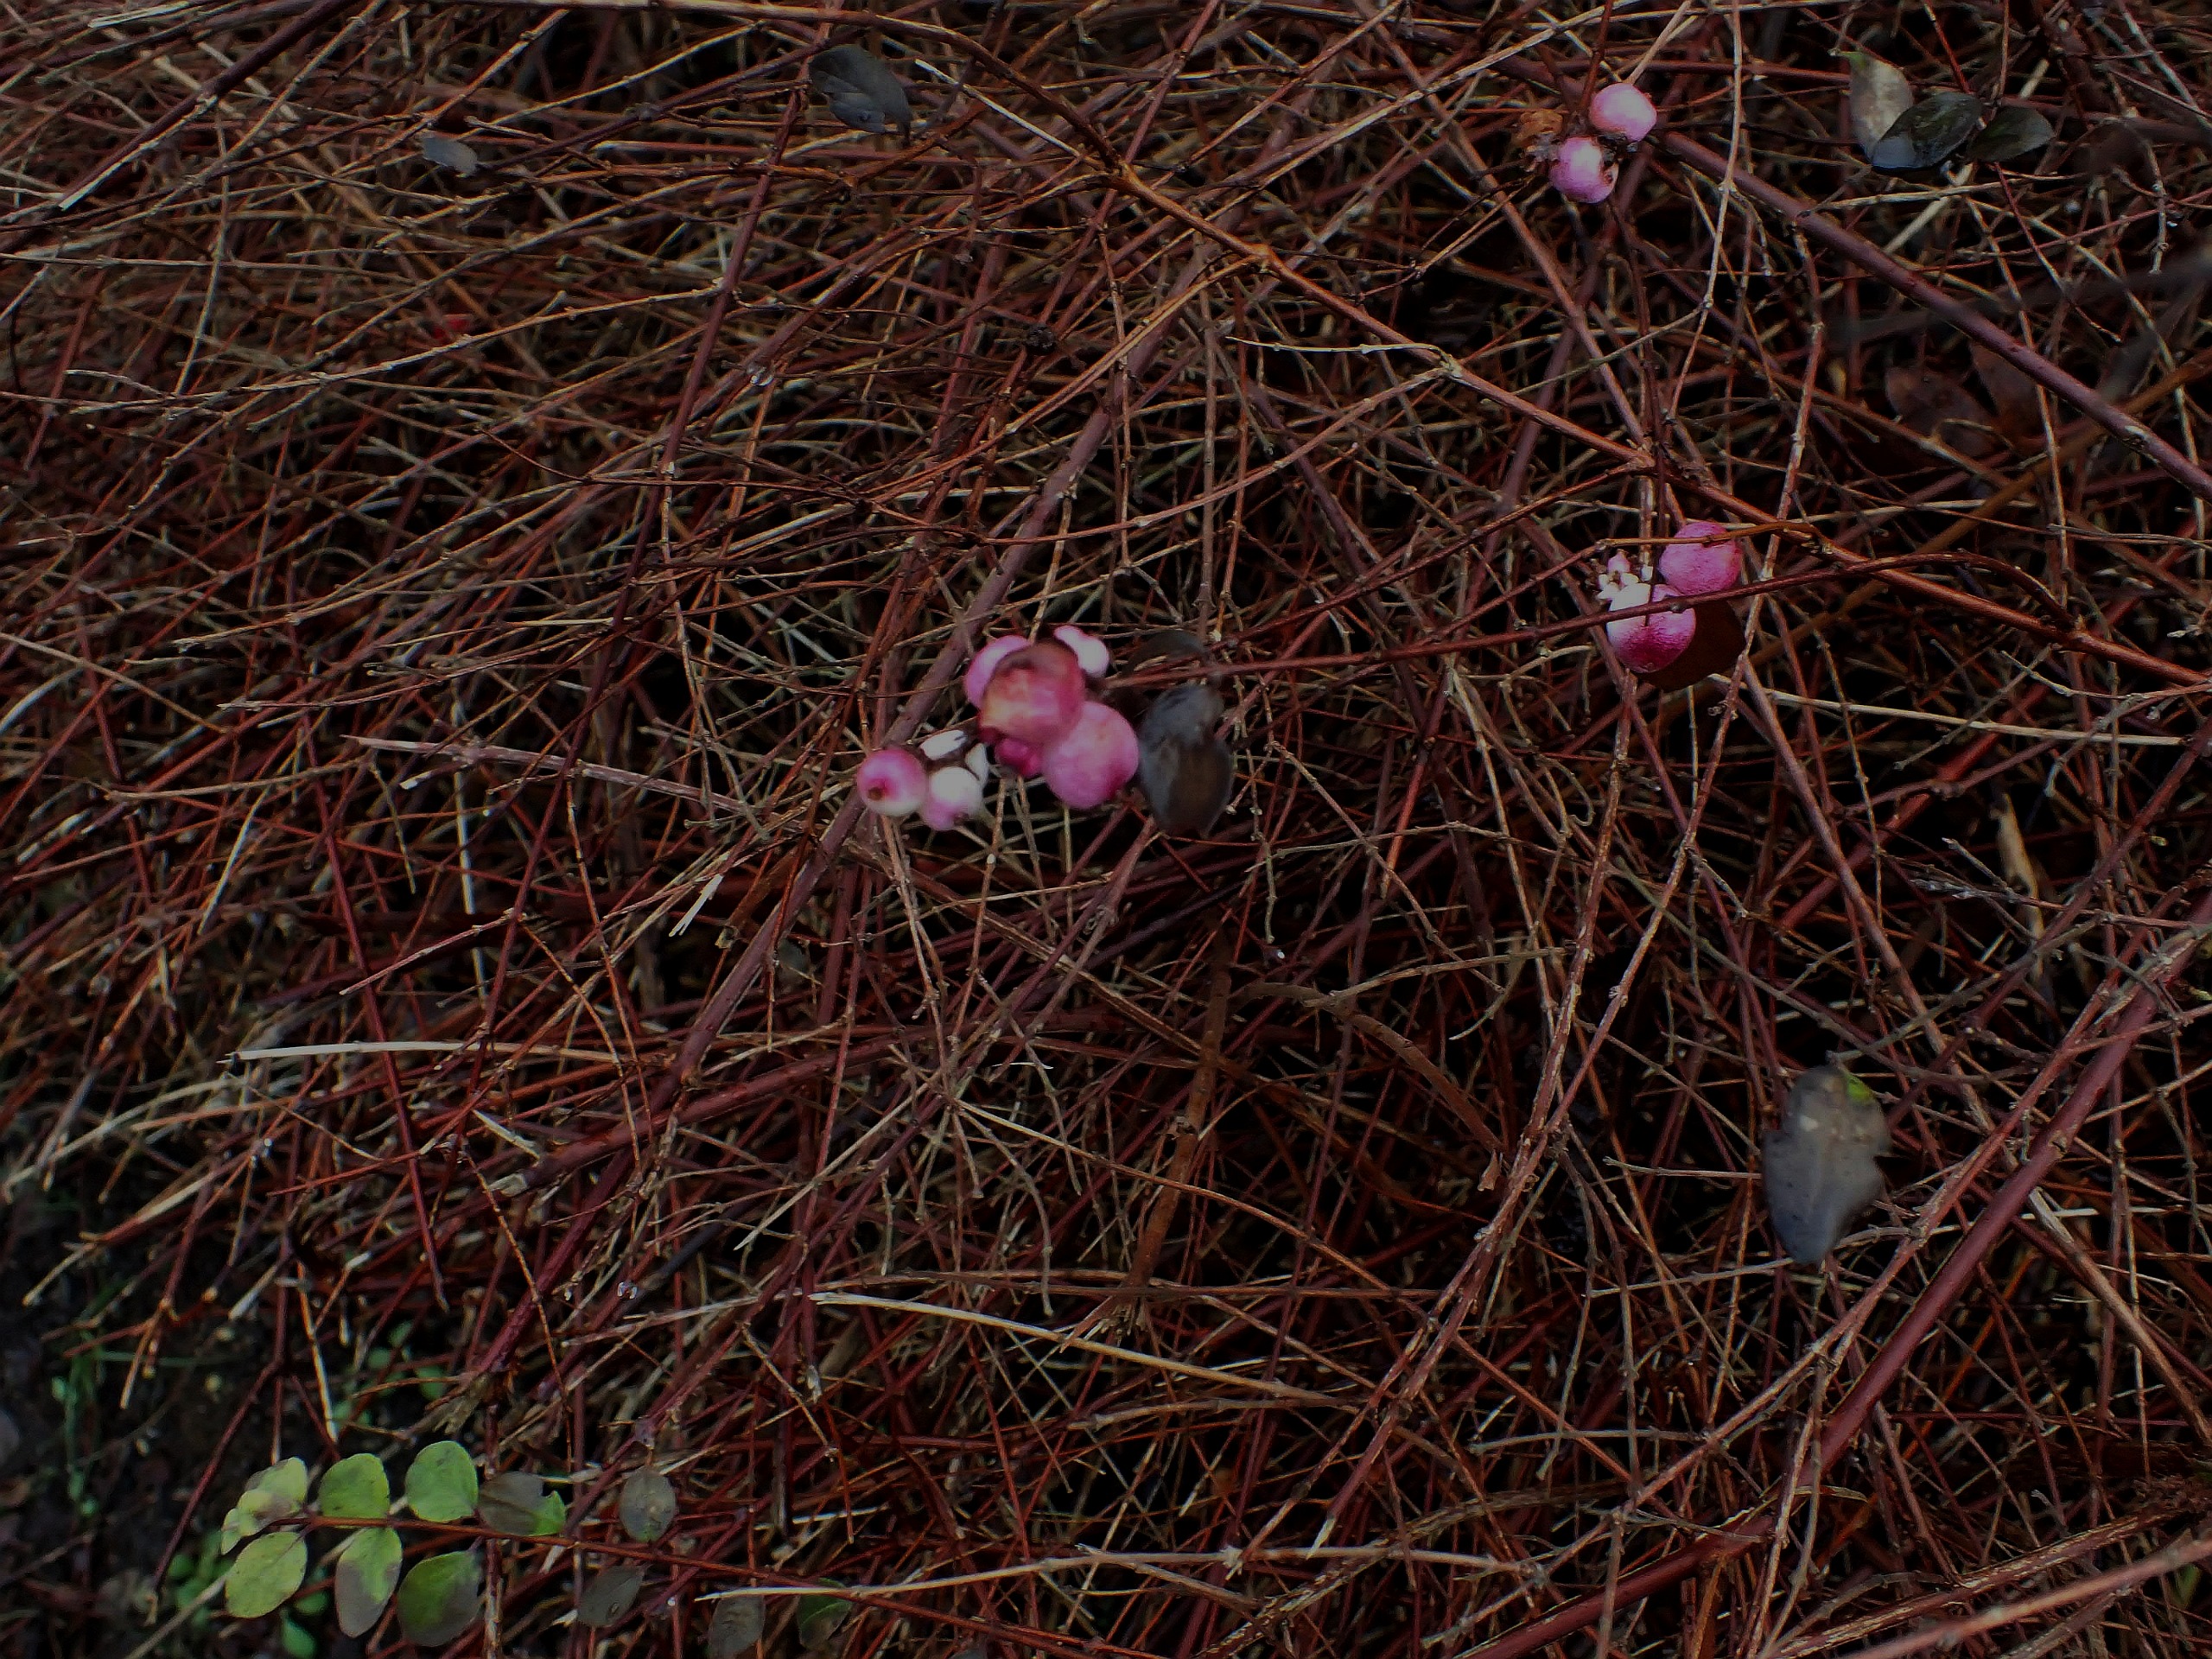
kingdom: Plantae
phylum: Tracheophyta
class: Magnoliopsida
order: Dipsacales
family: Caprifoliaceae
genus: Symphoricarpos
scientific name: Symphoricarpos chenaultii
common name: Rød snebær
